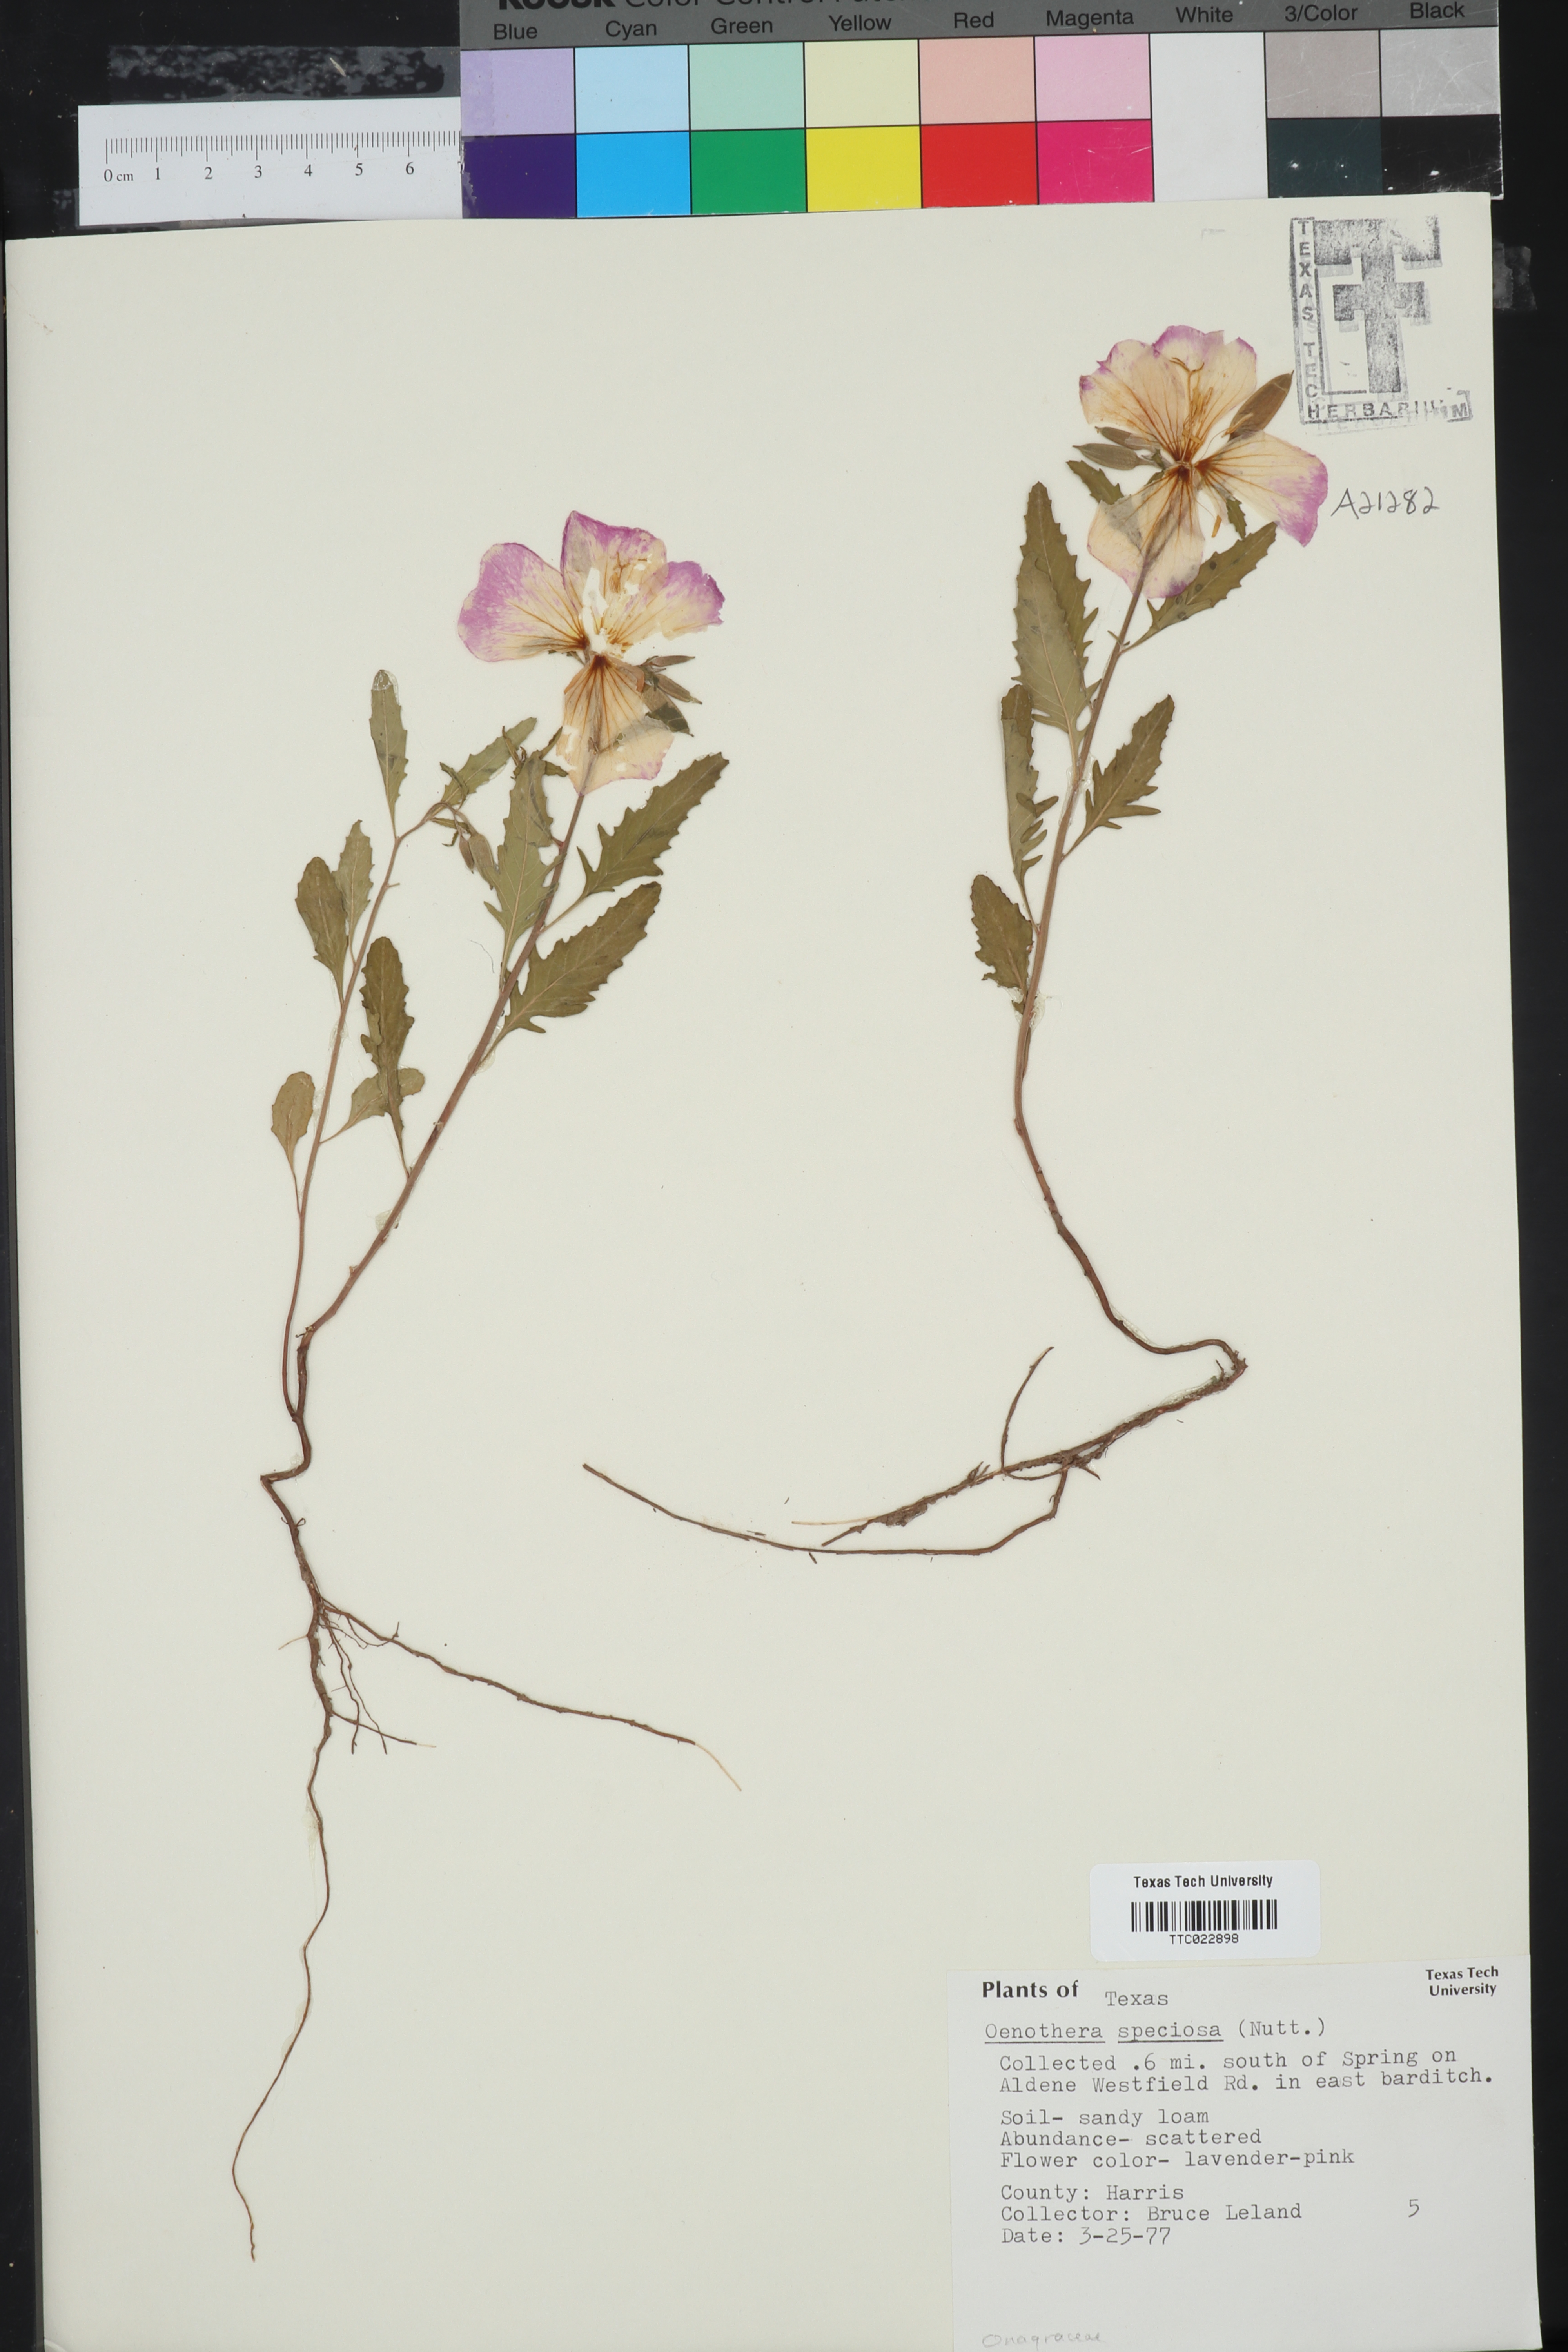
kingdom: Plantae
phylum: Tracheophyta
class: Magnoliopsida
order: Myrtales
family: Onagraceae
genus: Oenothera
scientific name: Oenothera speciosa
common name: White evening-primrose
